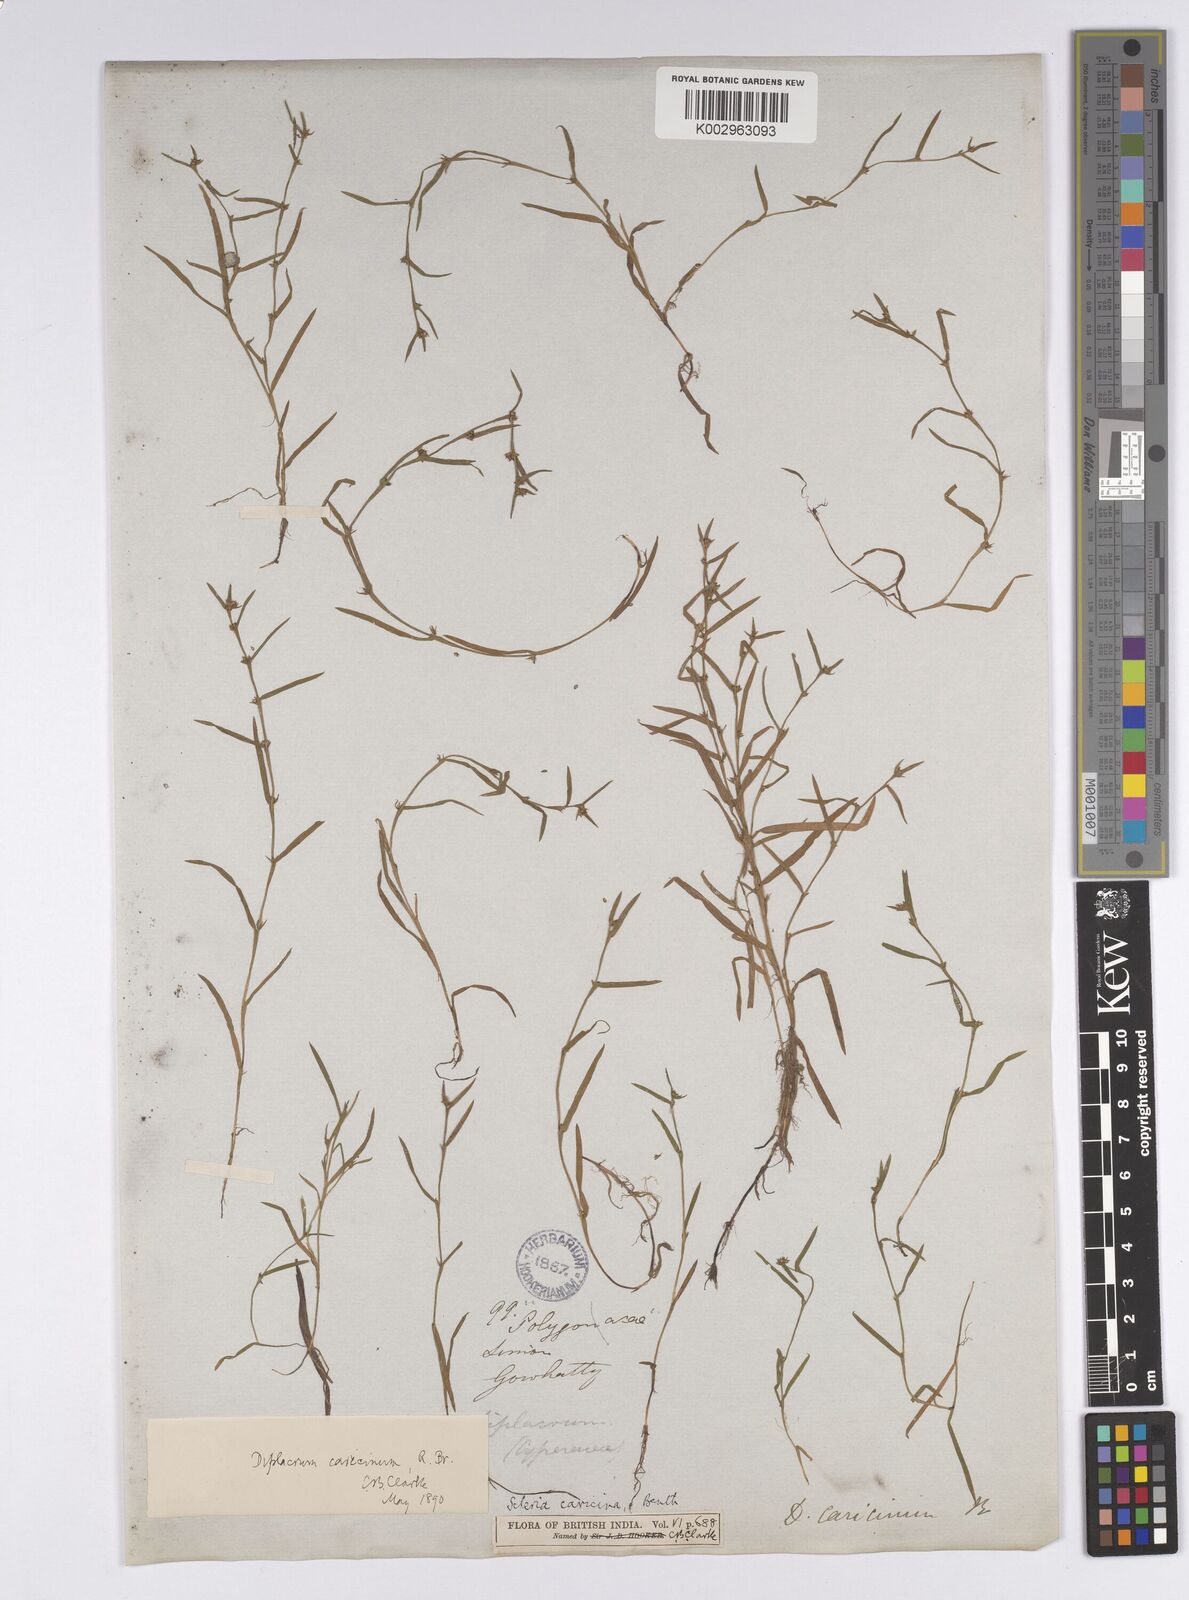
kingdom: Plantae
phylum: Tracheophyta
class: Liliopsida
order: Poales
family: Cyperaceae
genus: Diplacrum
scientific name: Diplacrum caricinum
